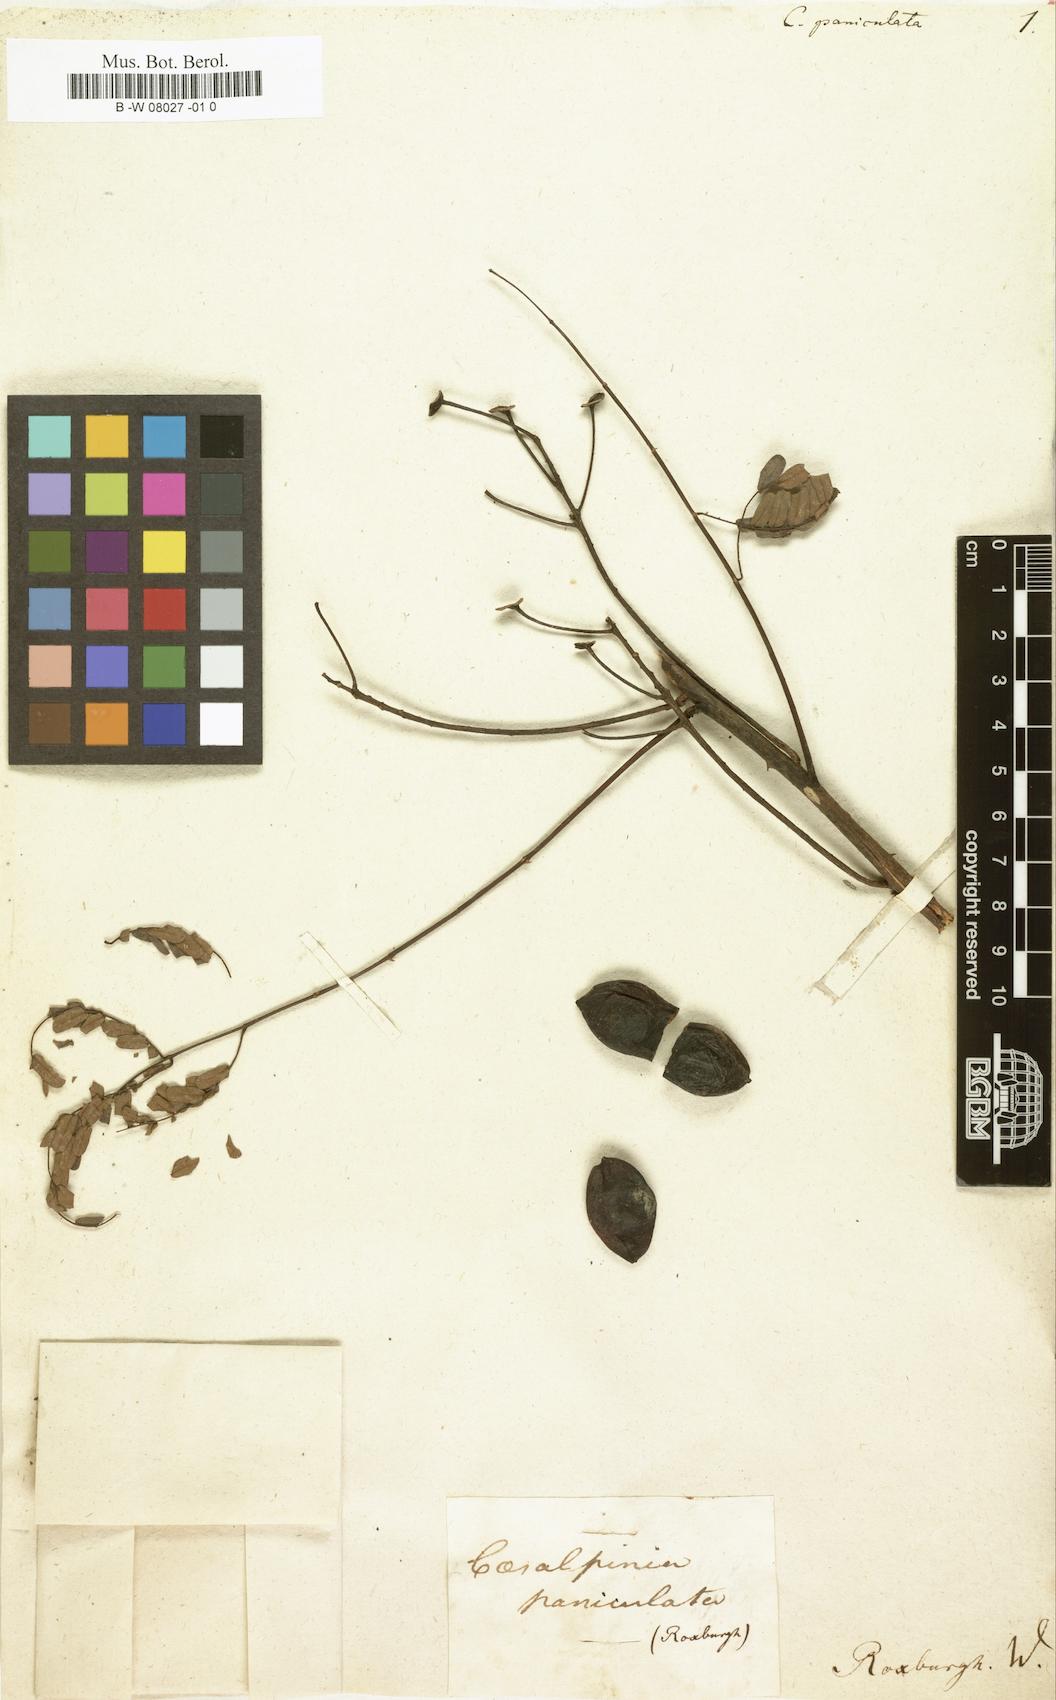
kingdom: Plantae
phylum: Tracheophyta
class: Magnoliopsida
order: Fabales
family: Fabaceae
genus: Caesalpinia
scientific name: Caesalpinia Ticanto crista
